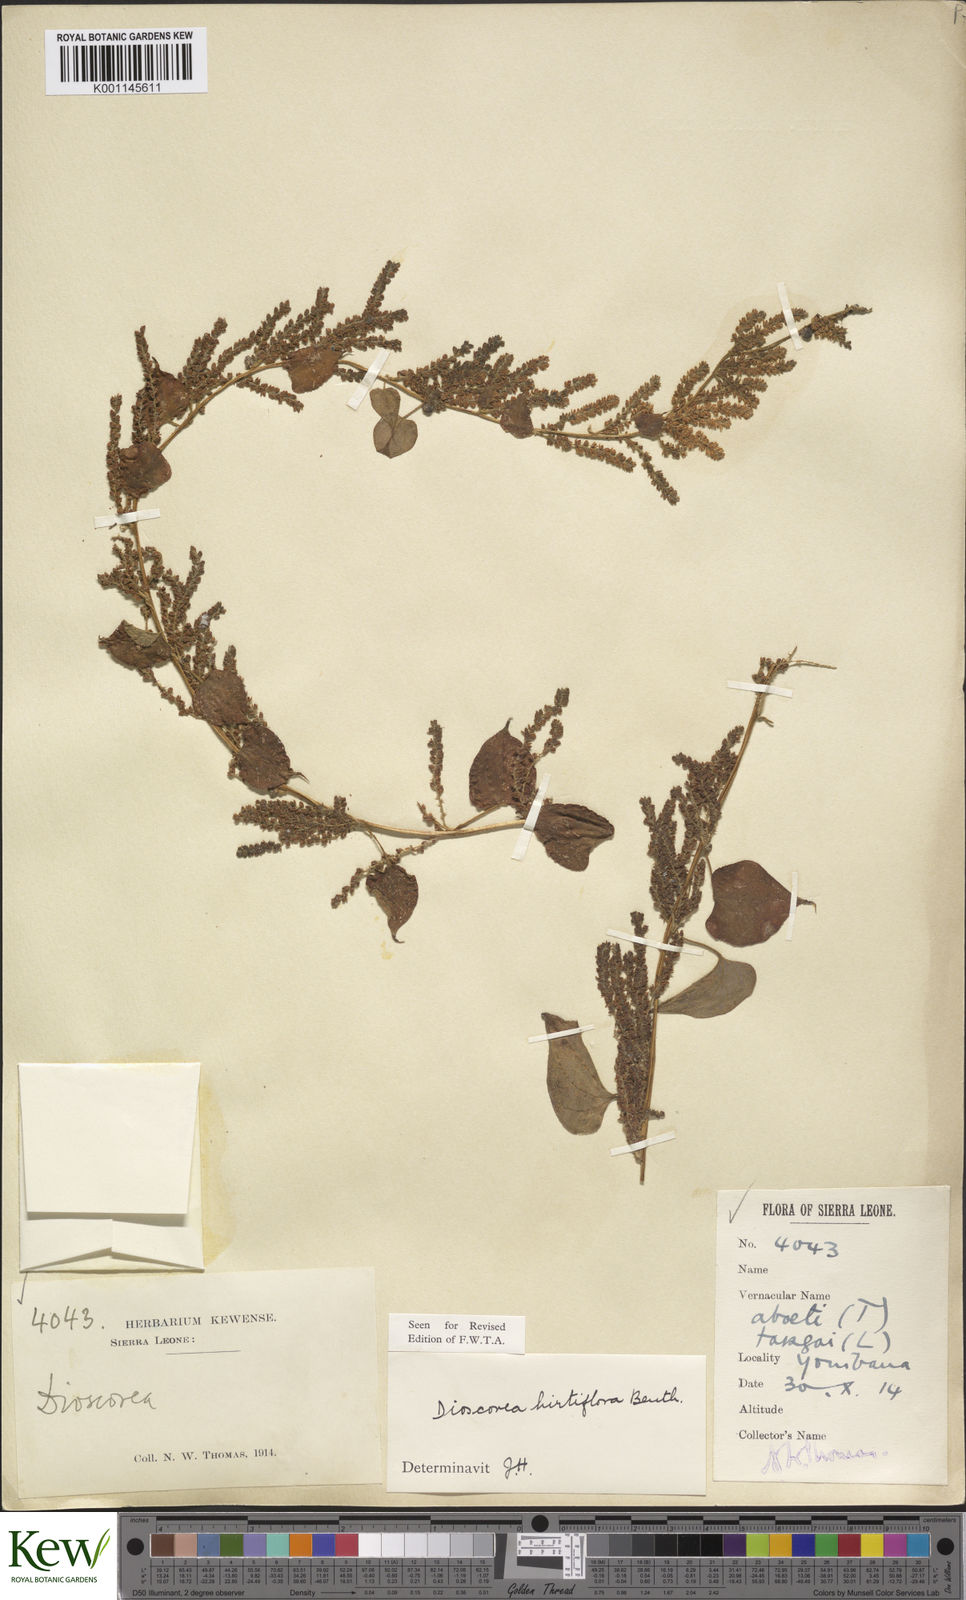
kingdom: Plantae
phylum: Tracheophyta
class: Liliopsida
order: Dioscoreales
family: Dioscoreaceae
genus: Dioscorea
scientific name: Dioscorea hirtiflora
